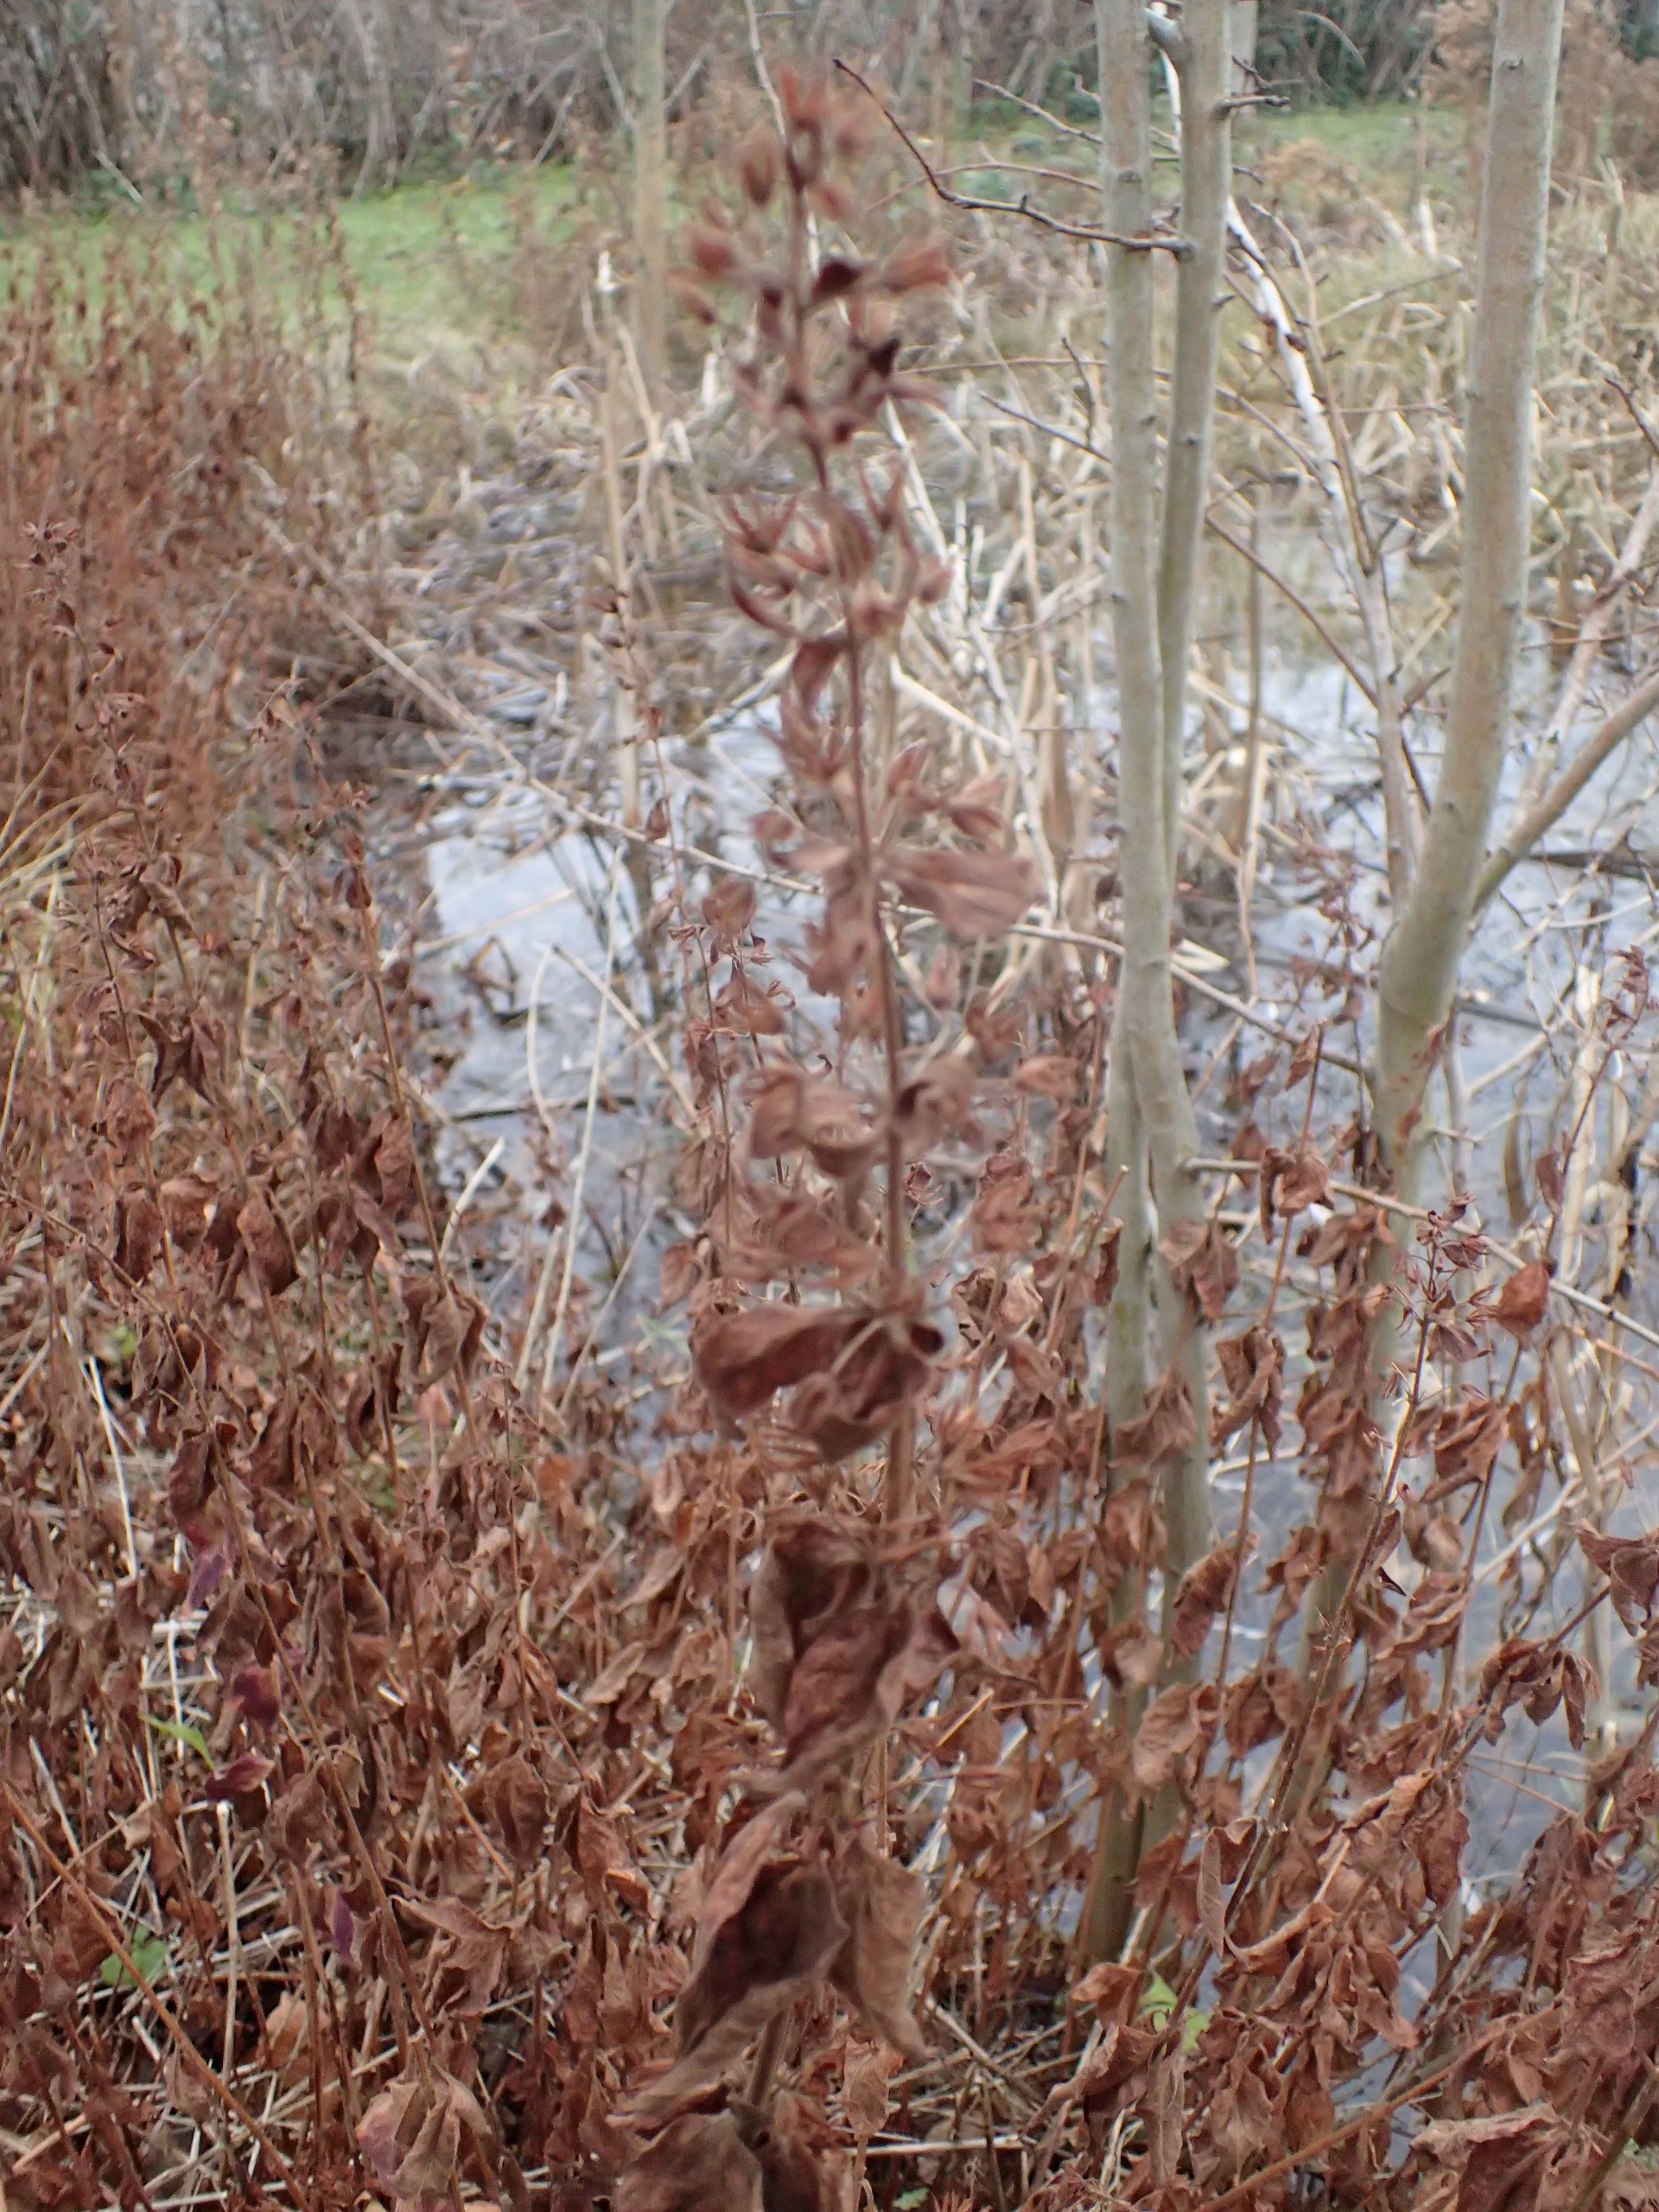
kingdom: Plantae
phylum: Tracheophyta
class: Magnoliopsida
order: Ericales
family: Primulaceae
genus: Lysimachia
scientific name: Lysimachia punctata
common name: Prikbladet fredløs
